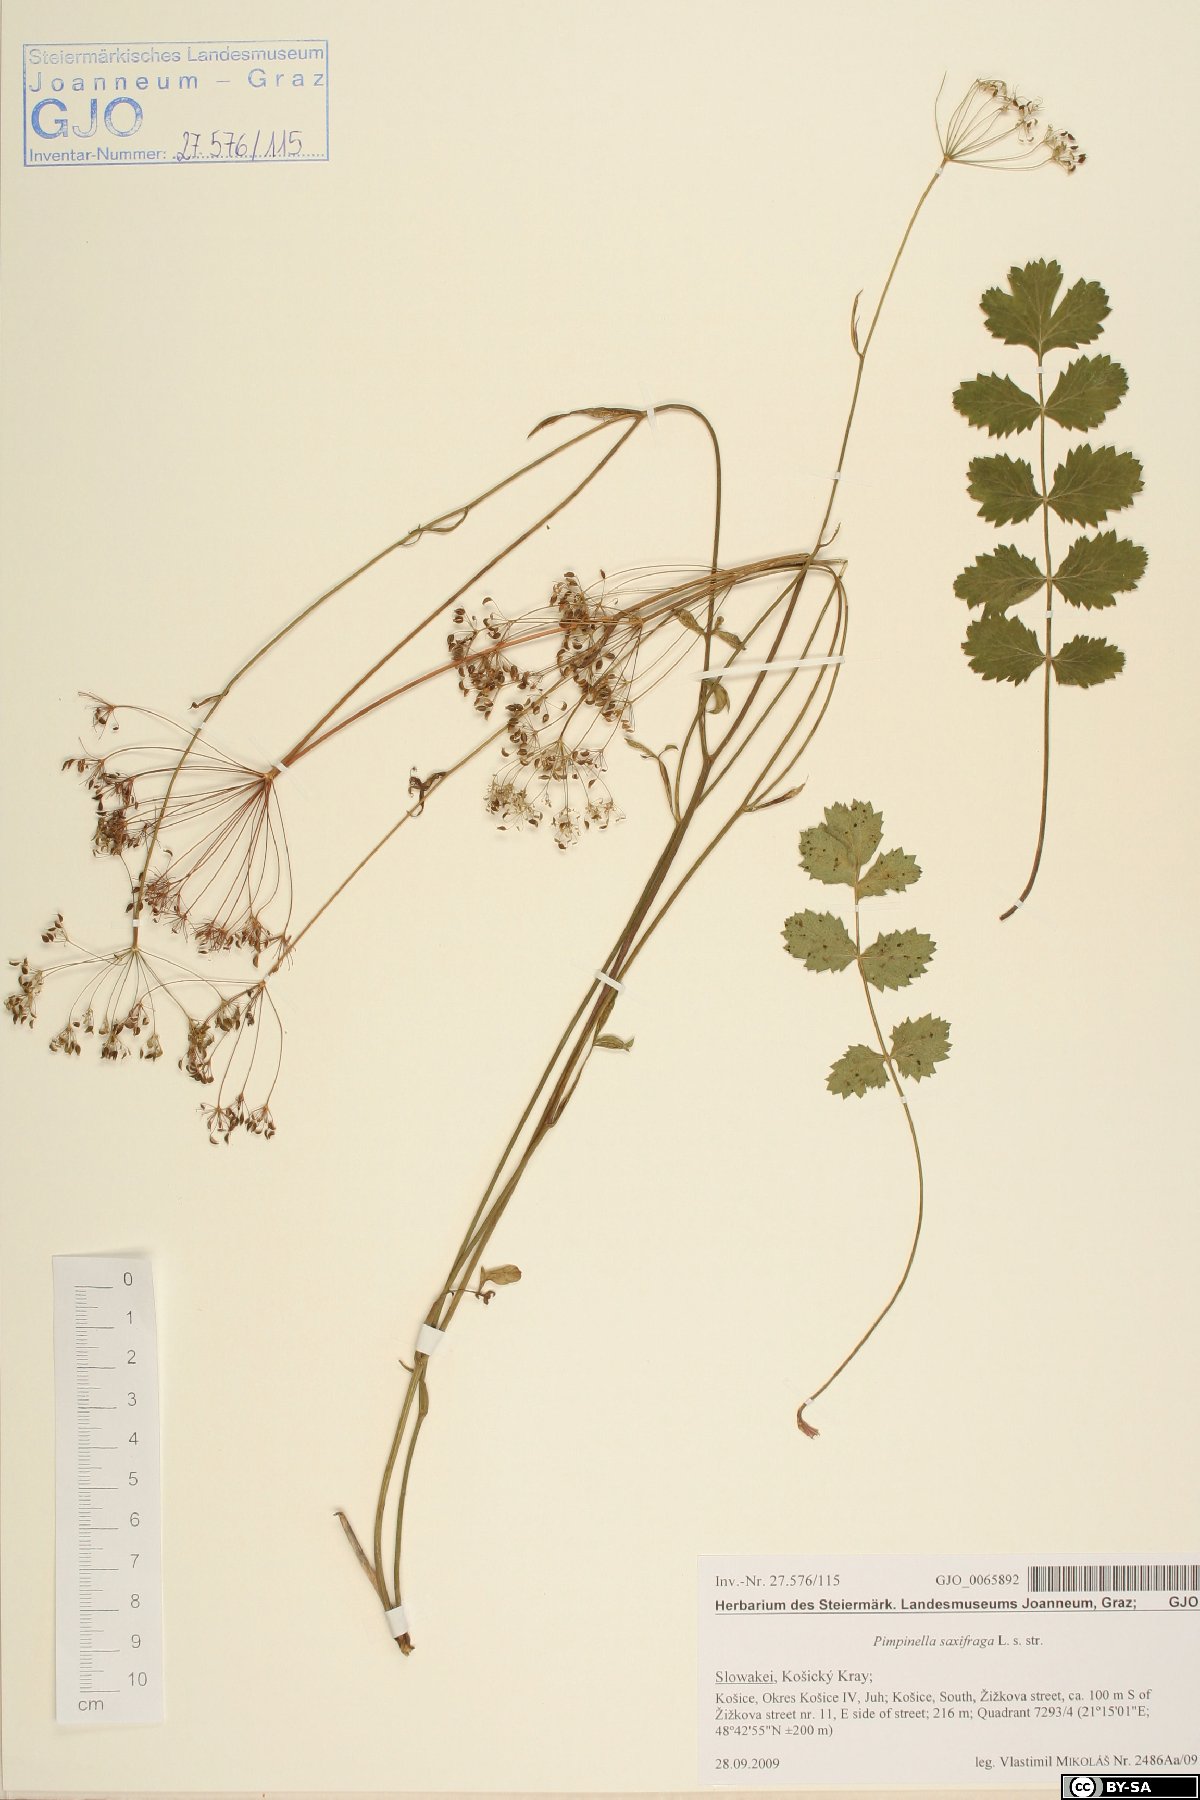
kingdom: Plantae
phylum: Tracheophyta
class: Magnoliopsida
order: Apiales
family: Apiaceae
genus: Pimpinella
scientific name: Pimpinella saxifraga
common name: Burnet-saxifrage
